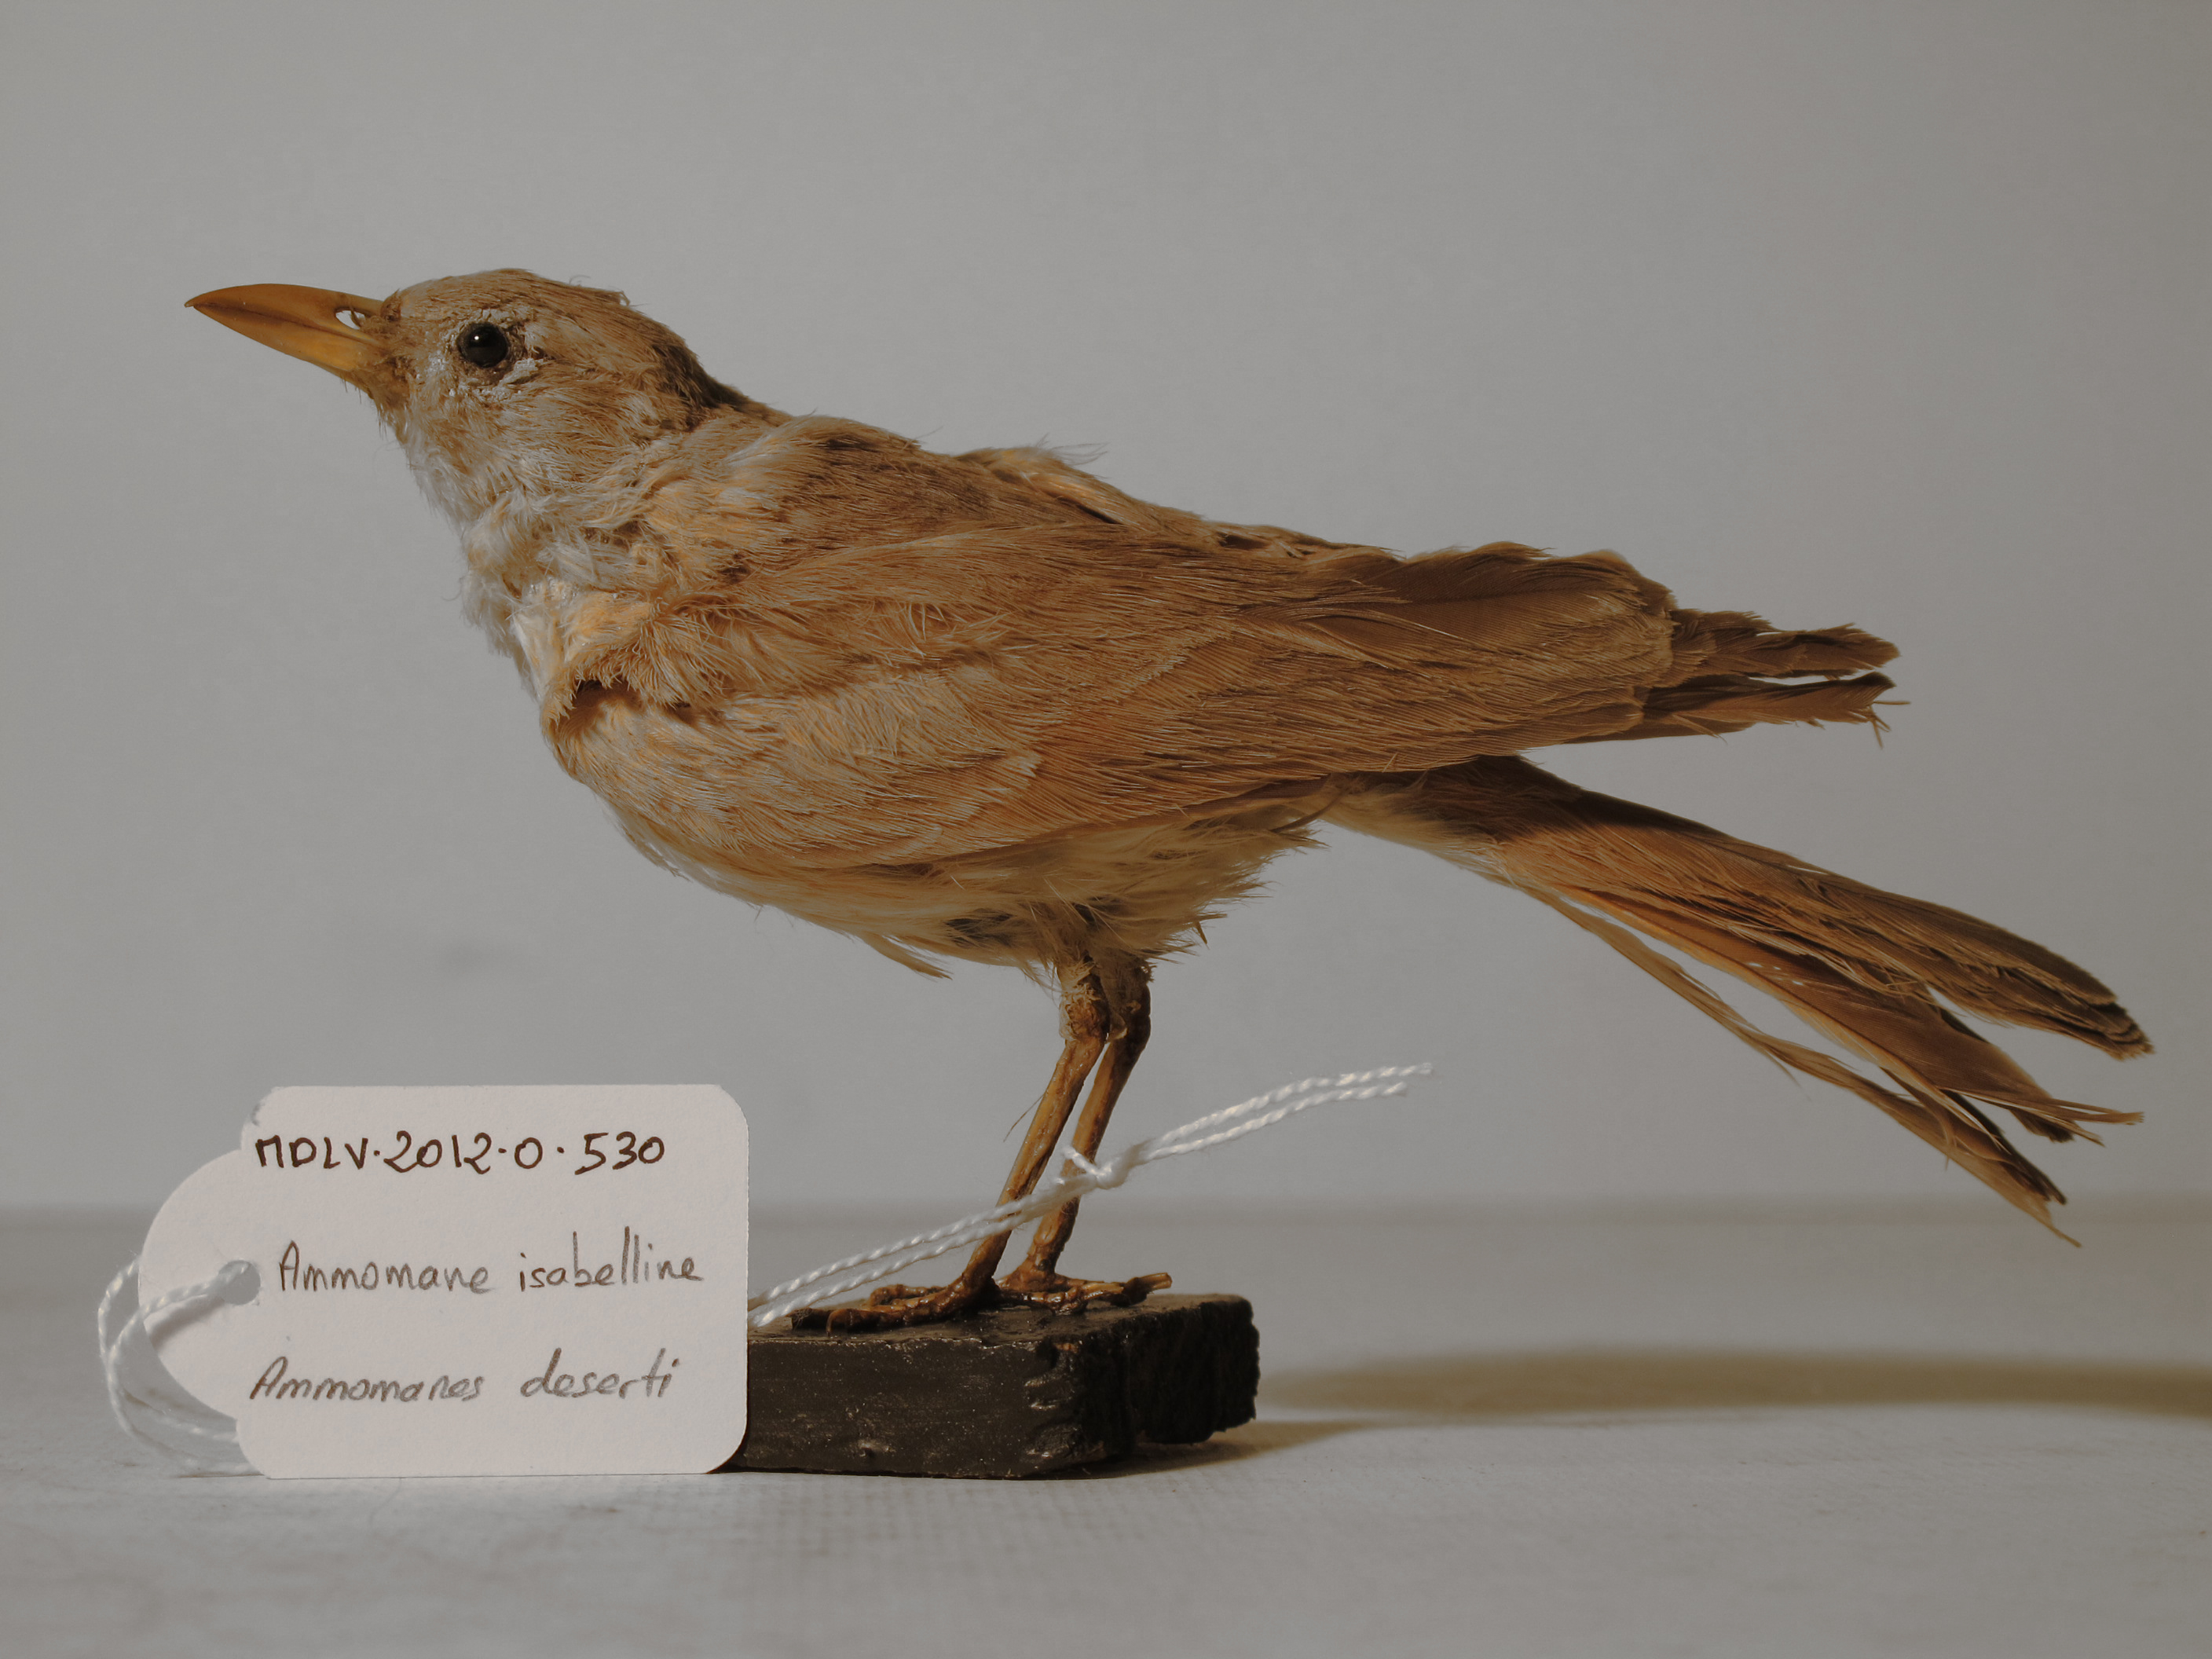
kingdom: Animalia
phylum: Chordata
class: Aves
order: Passeriformes
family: Alaudidae
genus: Ammomanes
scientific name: Ammomanes deserti
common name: Desert Lark
